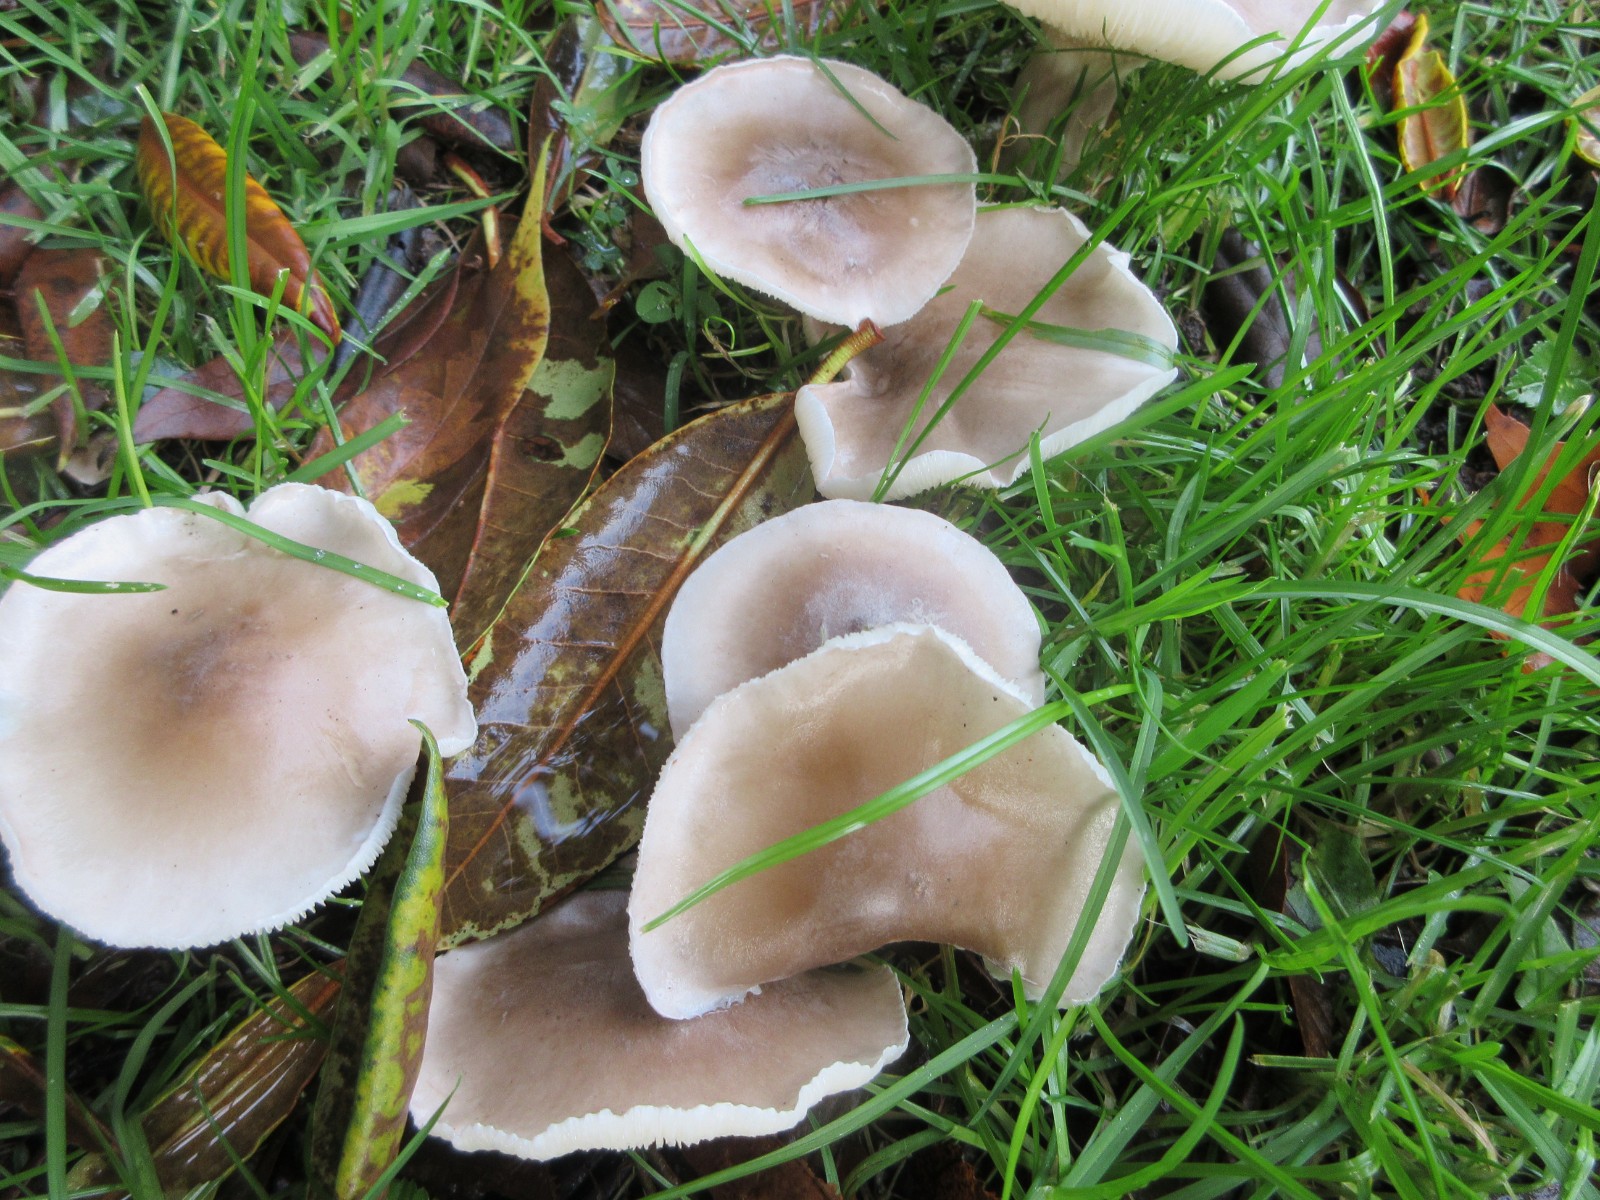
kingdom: Fungi
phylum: Basidiomycota
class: Agaricomycetes
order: Agaricales
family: Tricholomataceae
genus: Clitocybe
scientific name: Clitocybe nebularis
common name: tåge-tragthat
